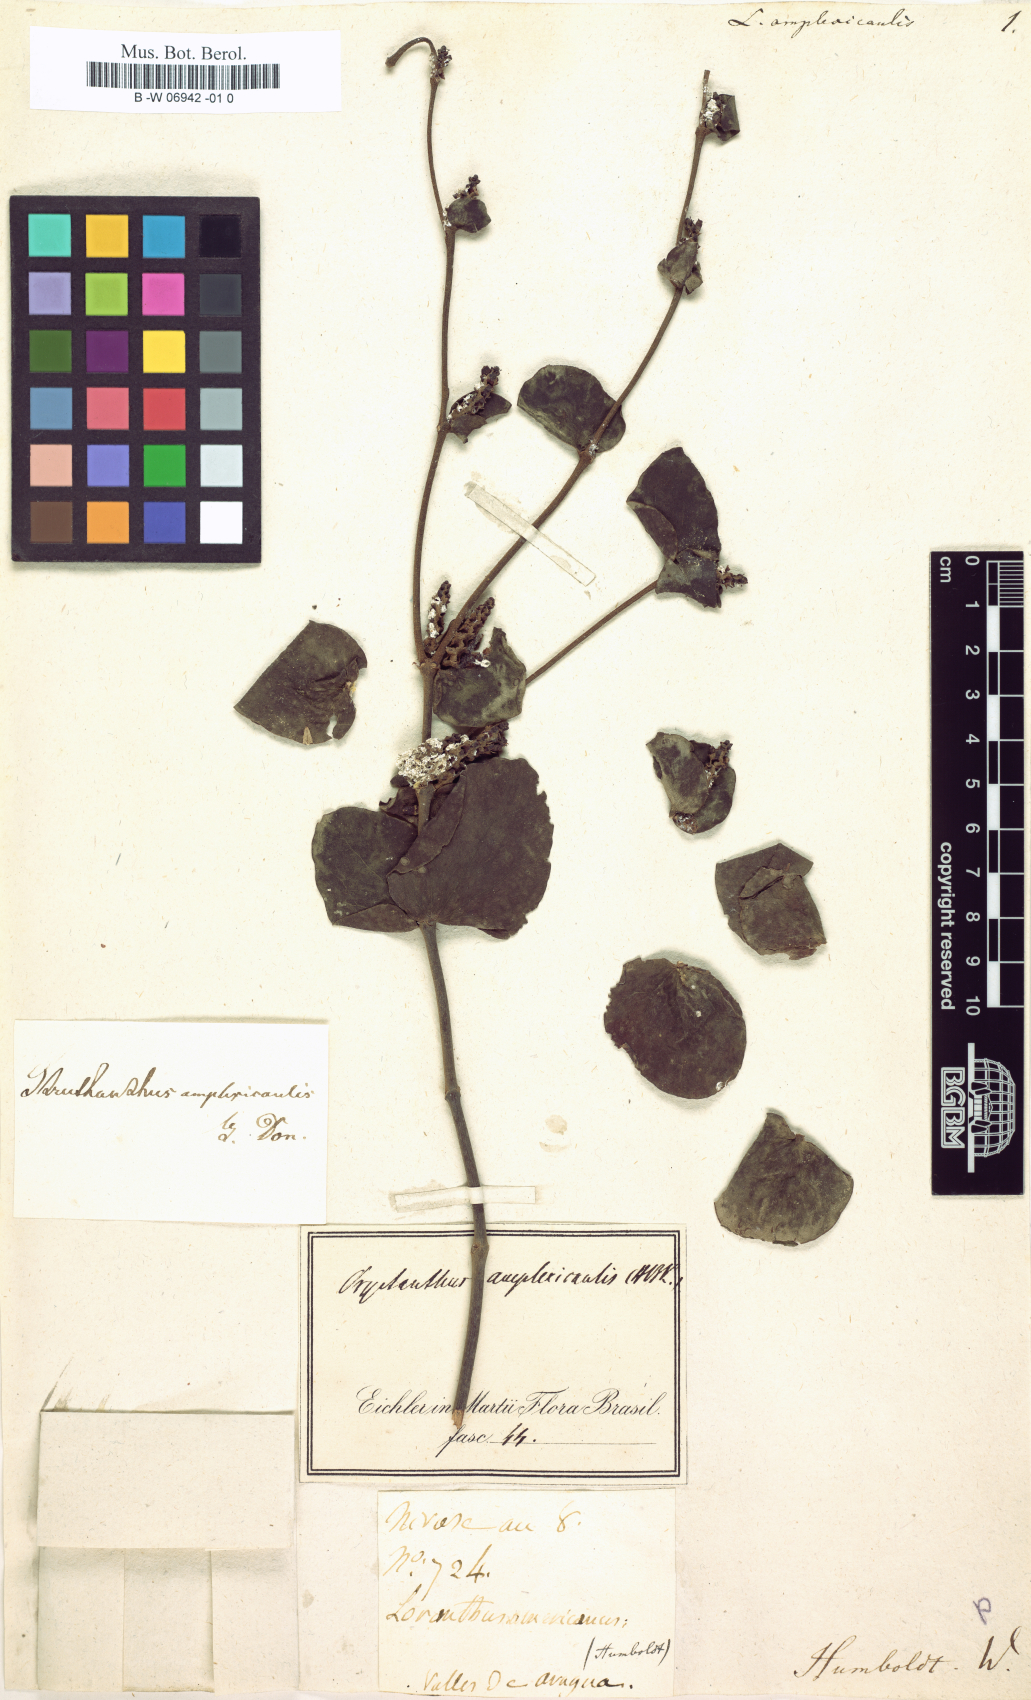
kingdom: Plantae
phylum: Tracheophyta
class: Magnoliopsida
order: Santalales
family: Loranthaceae
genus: Oryctanthus
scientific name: Oryctanthus alveolatus
